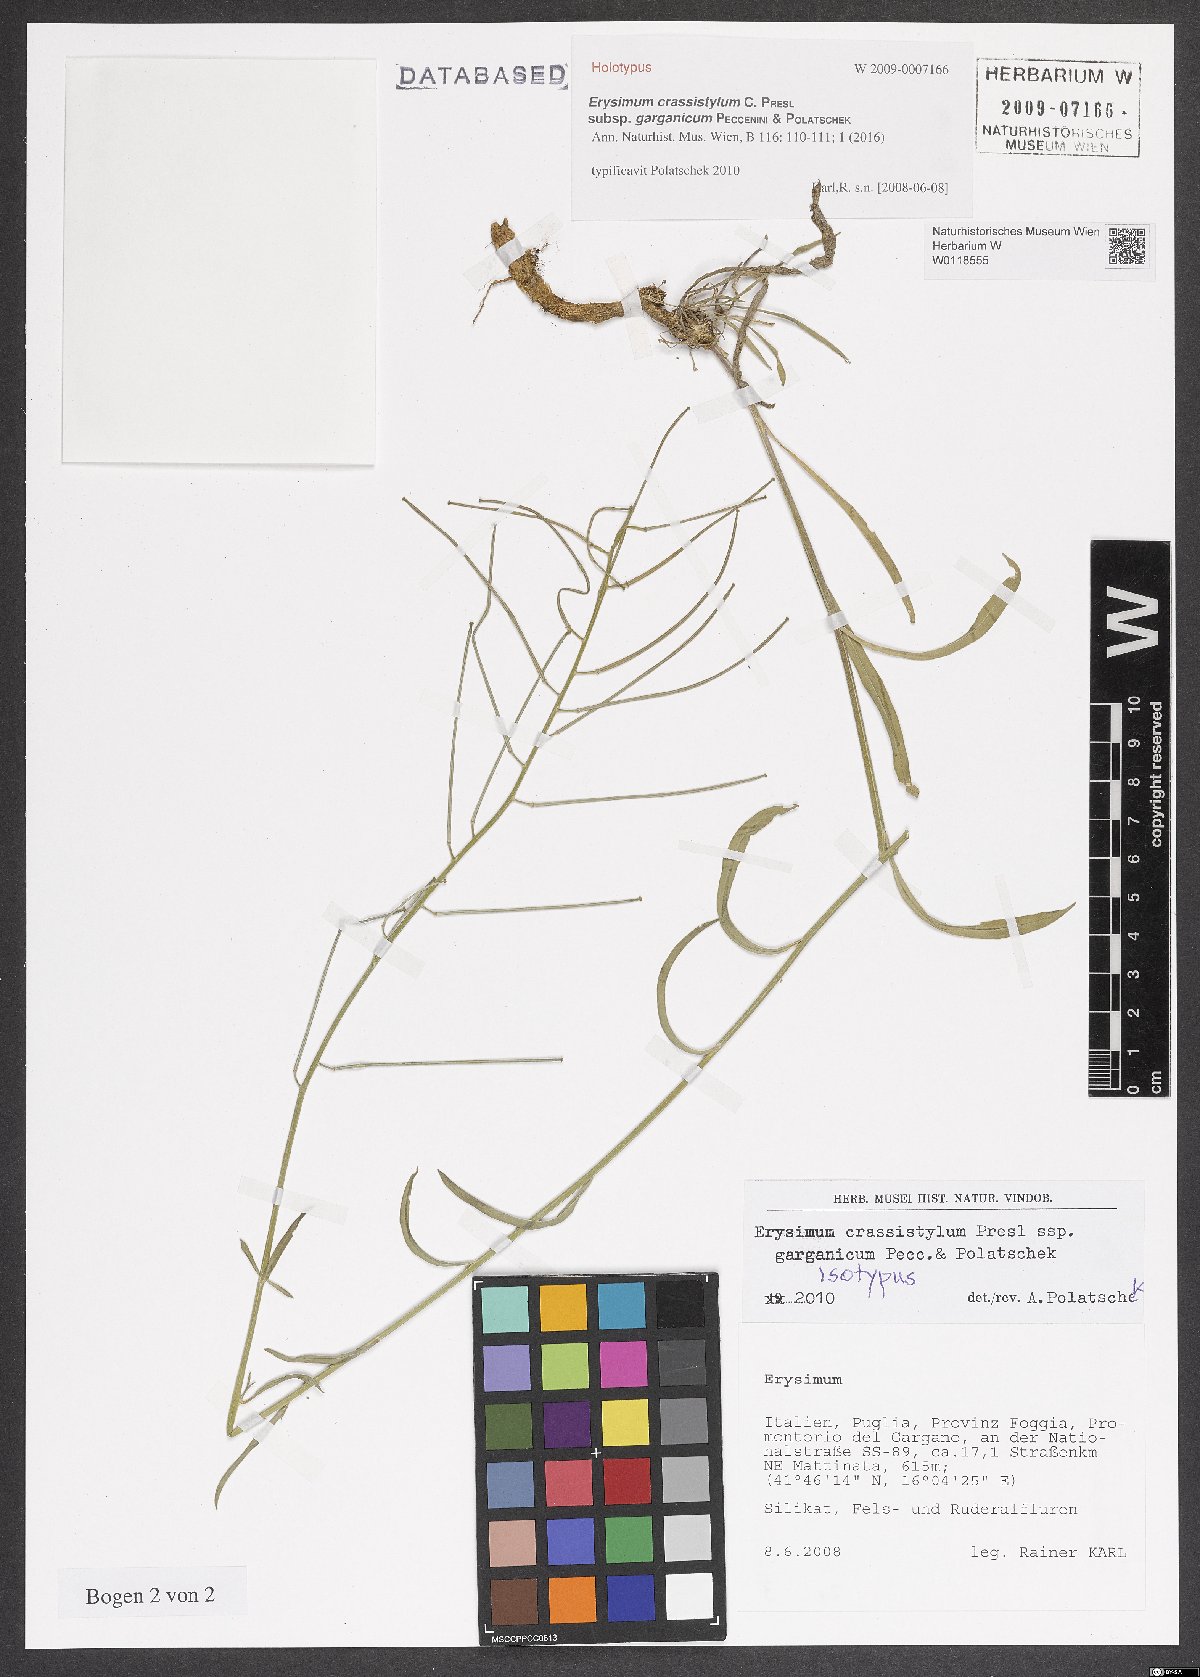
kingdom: Plantae
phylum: Tracheophyta
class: Magnoliopsida
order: Brassicales
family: Brassicaceae
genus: Erysimum
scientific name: Erysimum crassistylum
